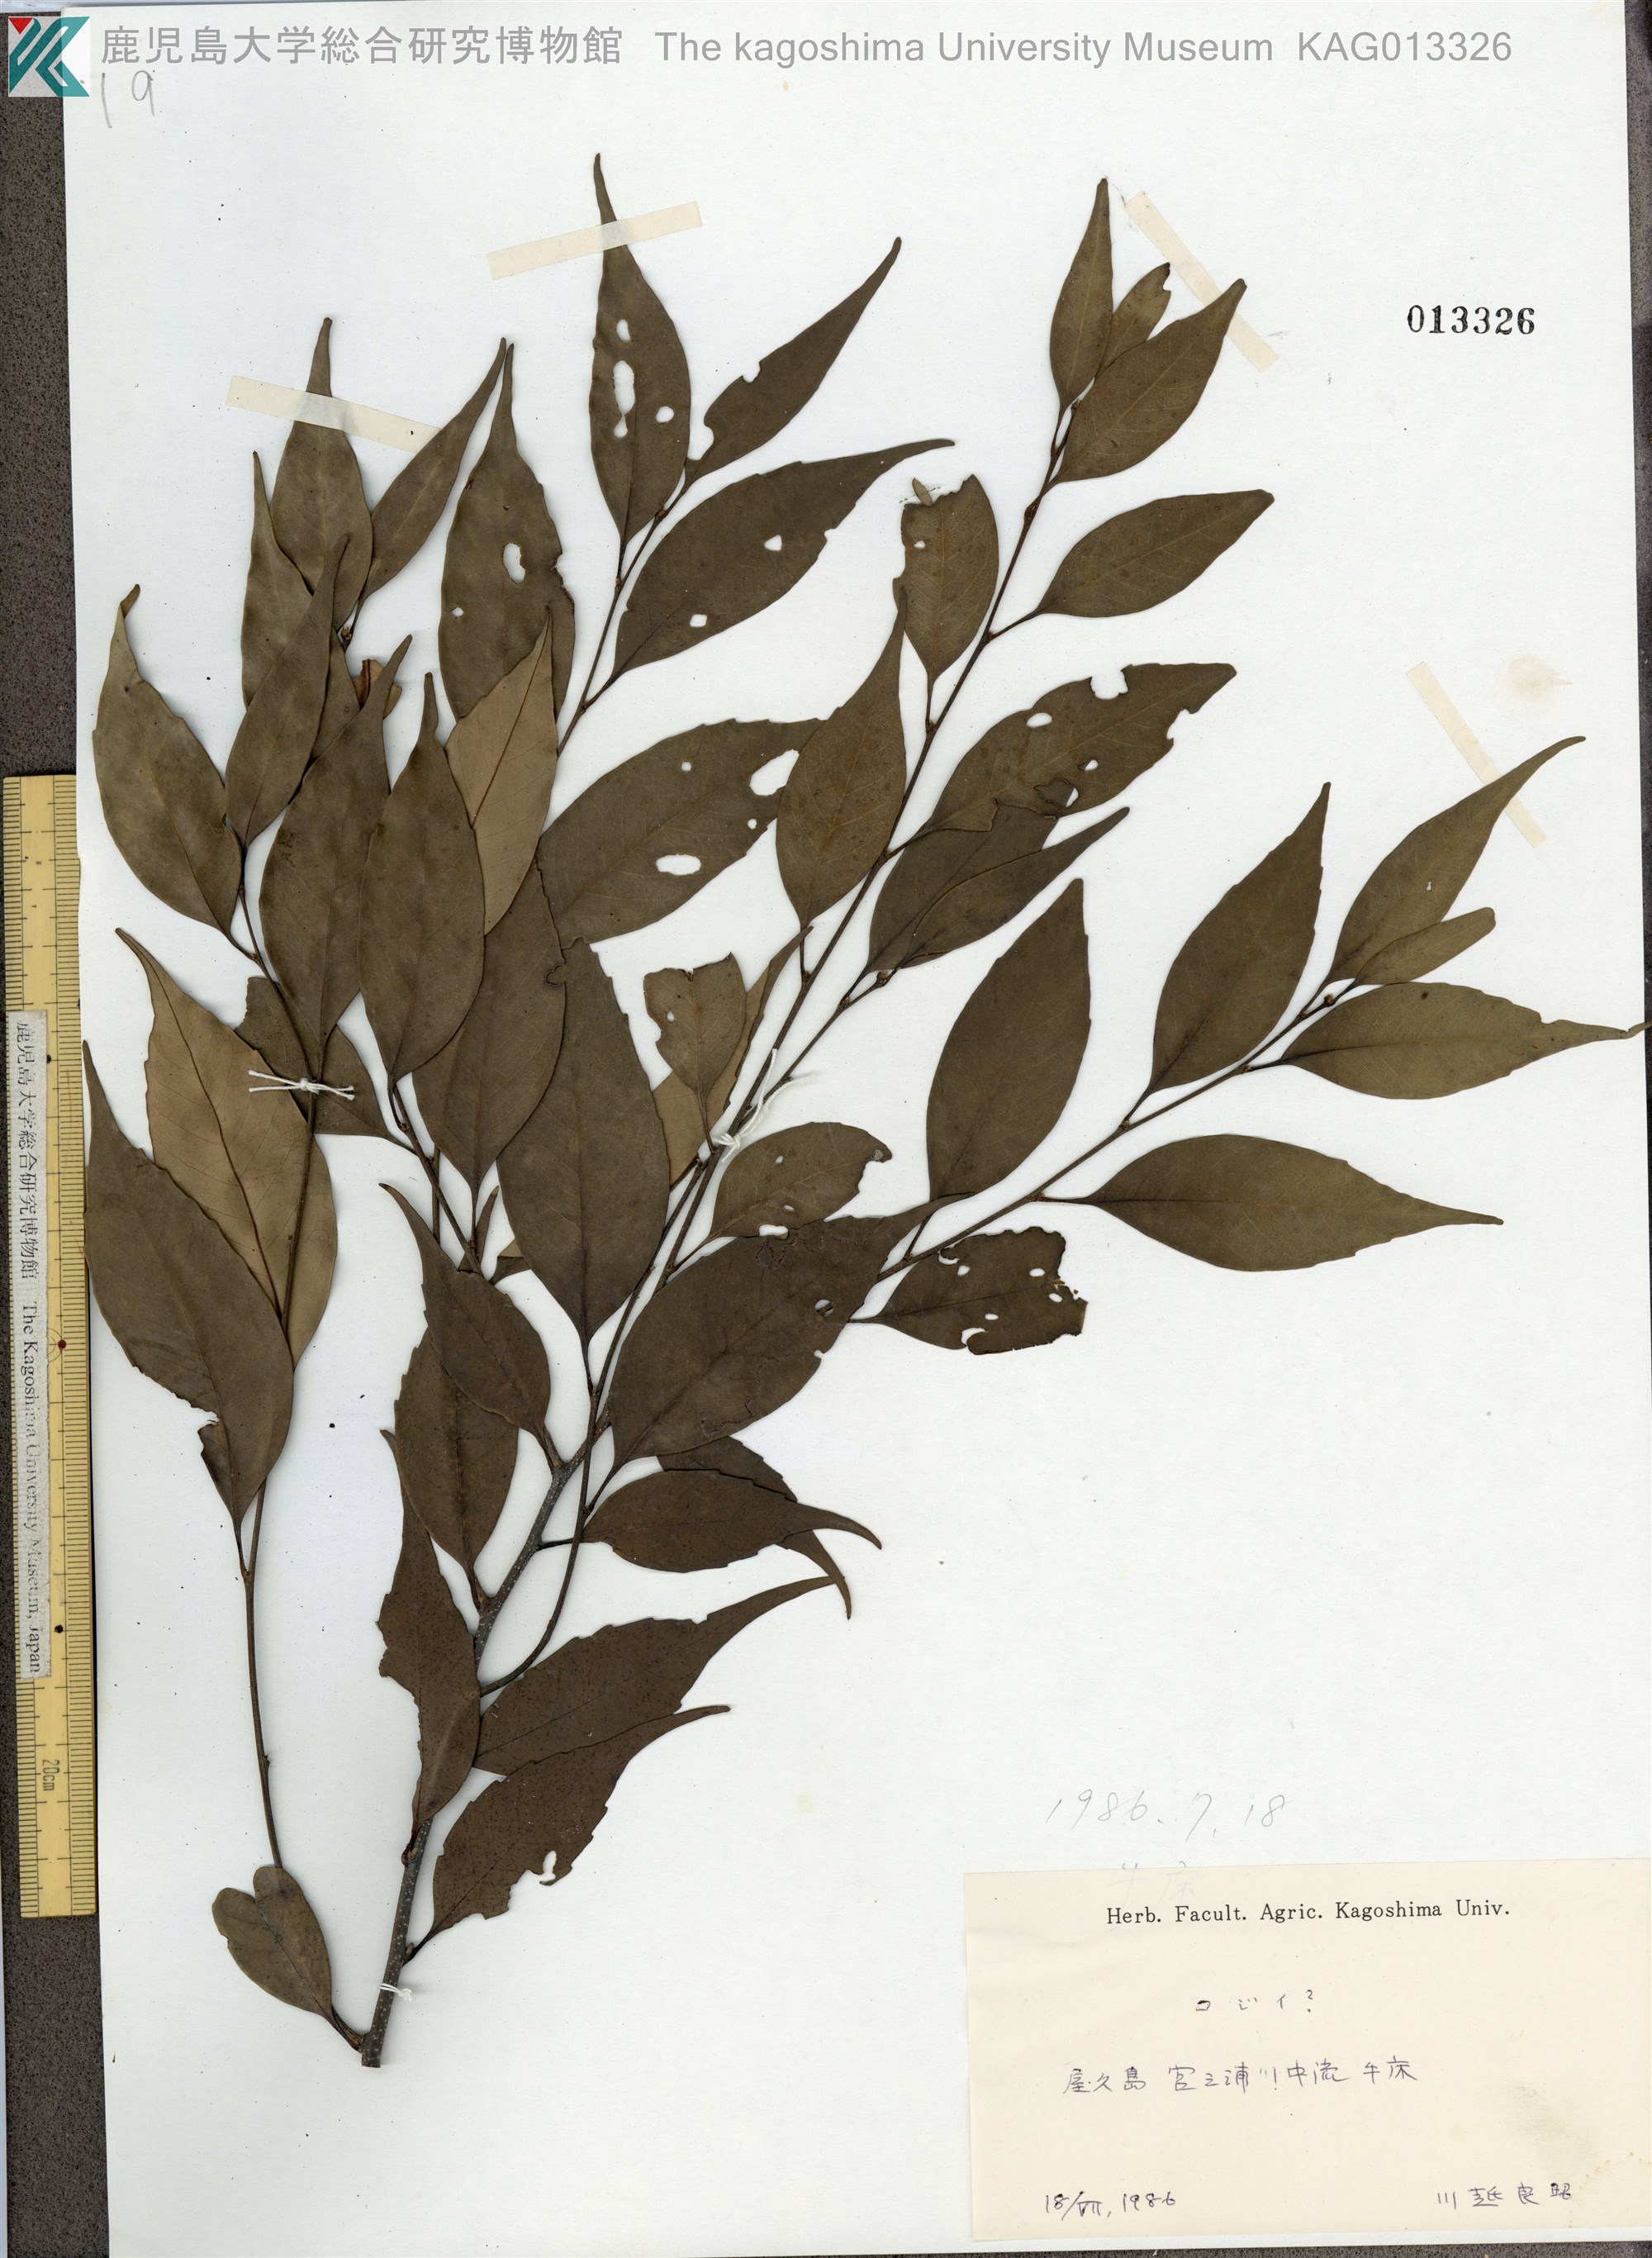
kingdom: Plantae
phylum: Tracheophyta
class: Magnoliopsida
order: Fagales
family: Fagaceae
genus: Castanopsis
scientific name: Castanopsis cuspidata
